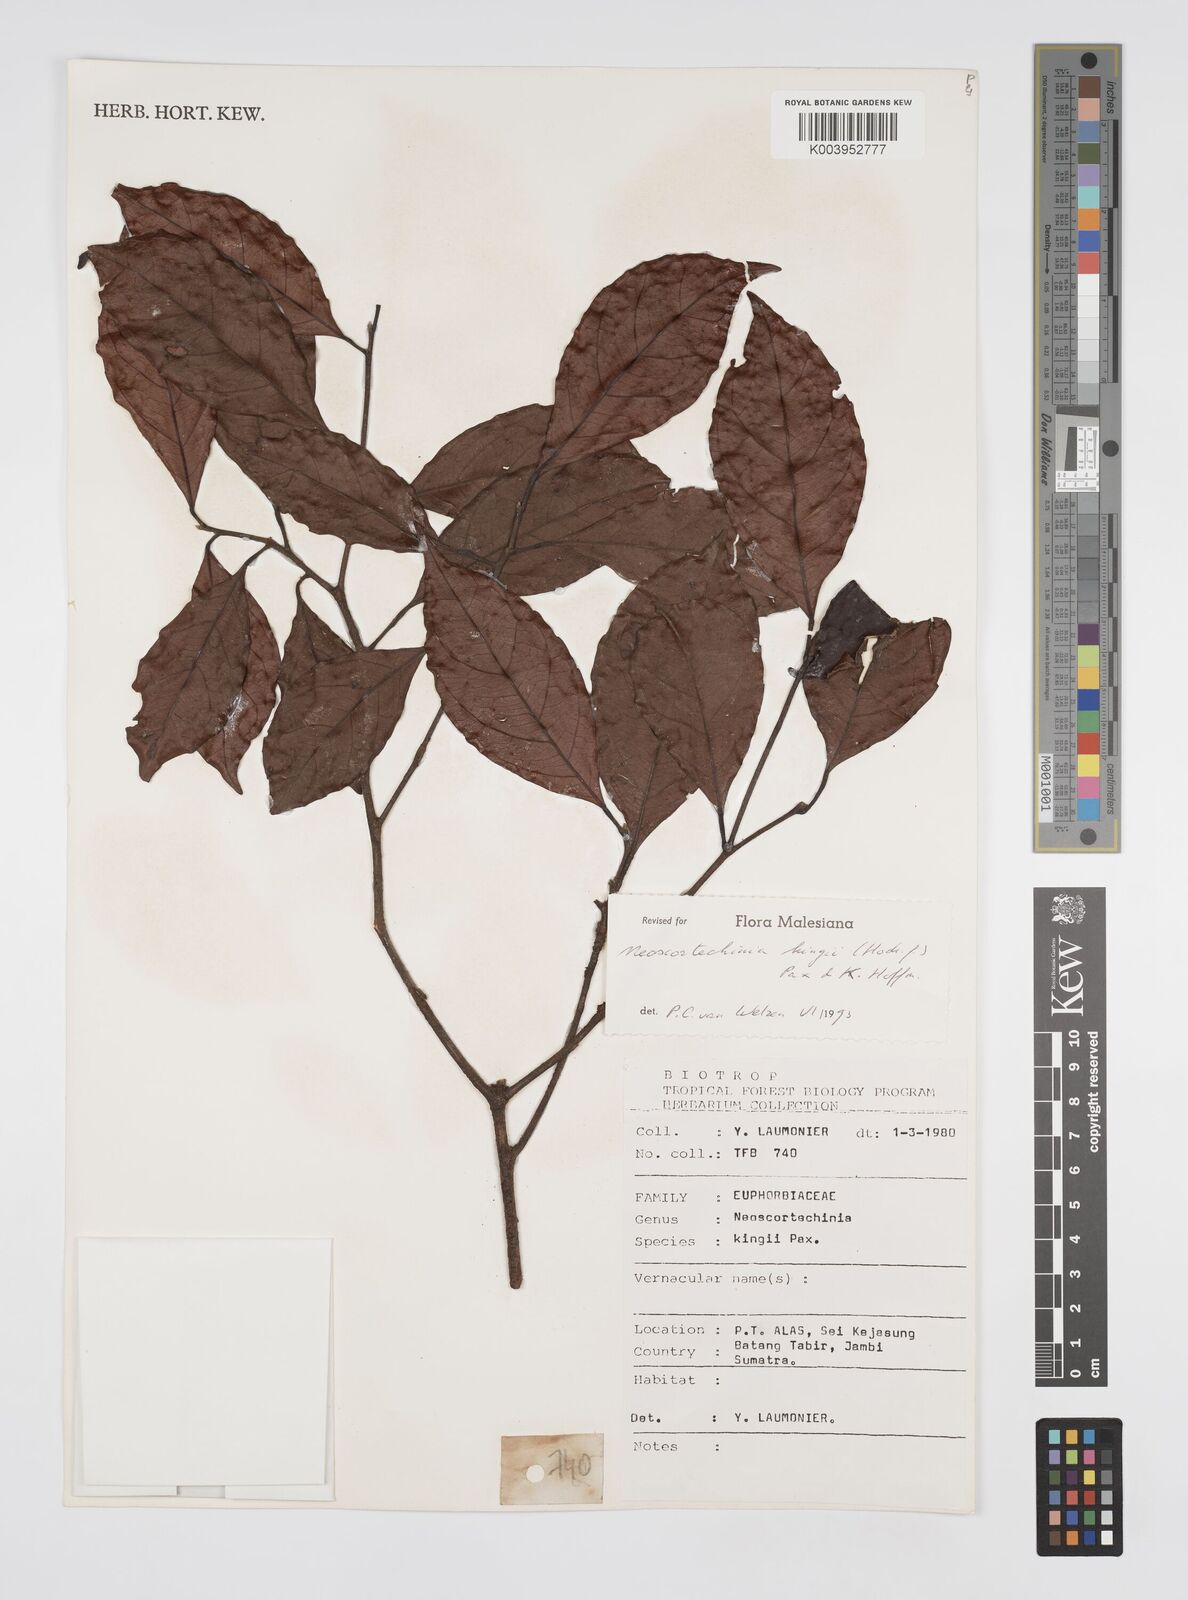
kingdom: Plantae
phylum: Tracheophyta
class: Magnoliopsida
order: Malpighiales
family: Euphorbiaceae
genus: Neoscortechinia
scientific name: Neoscortechinia kingii
